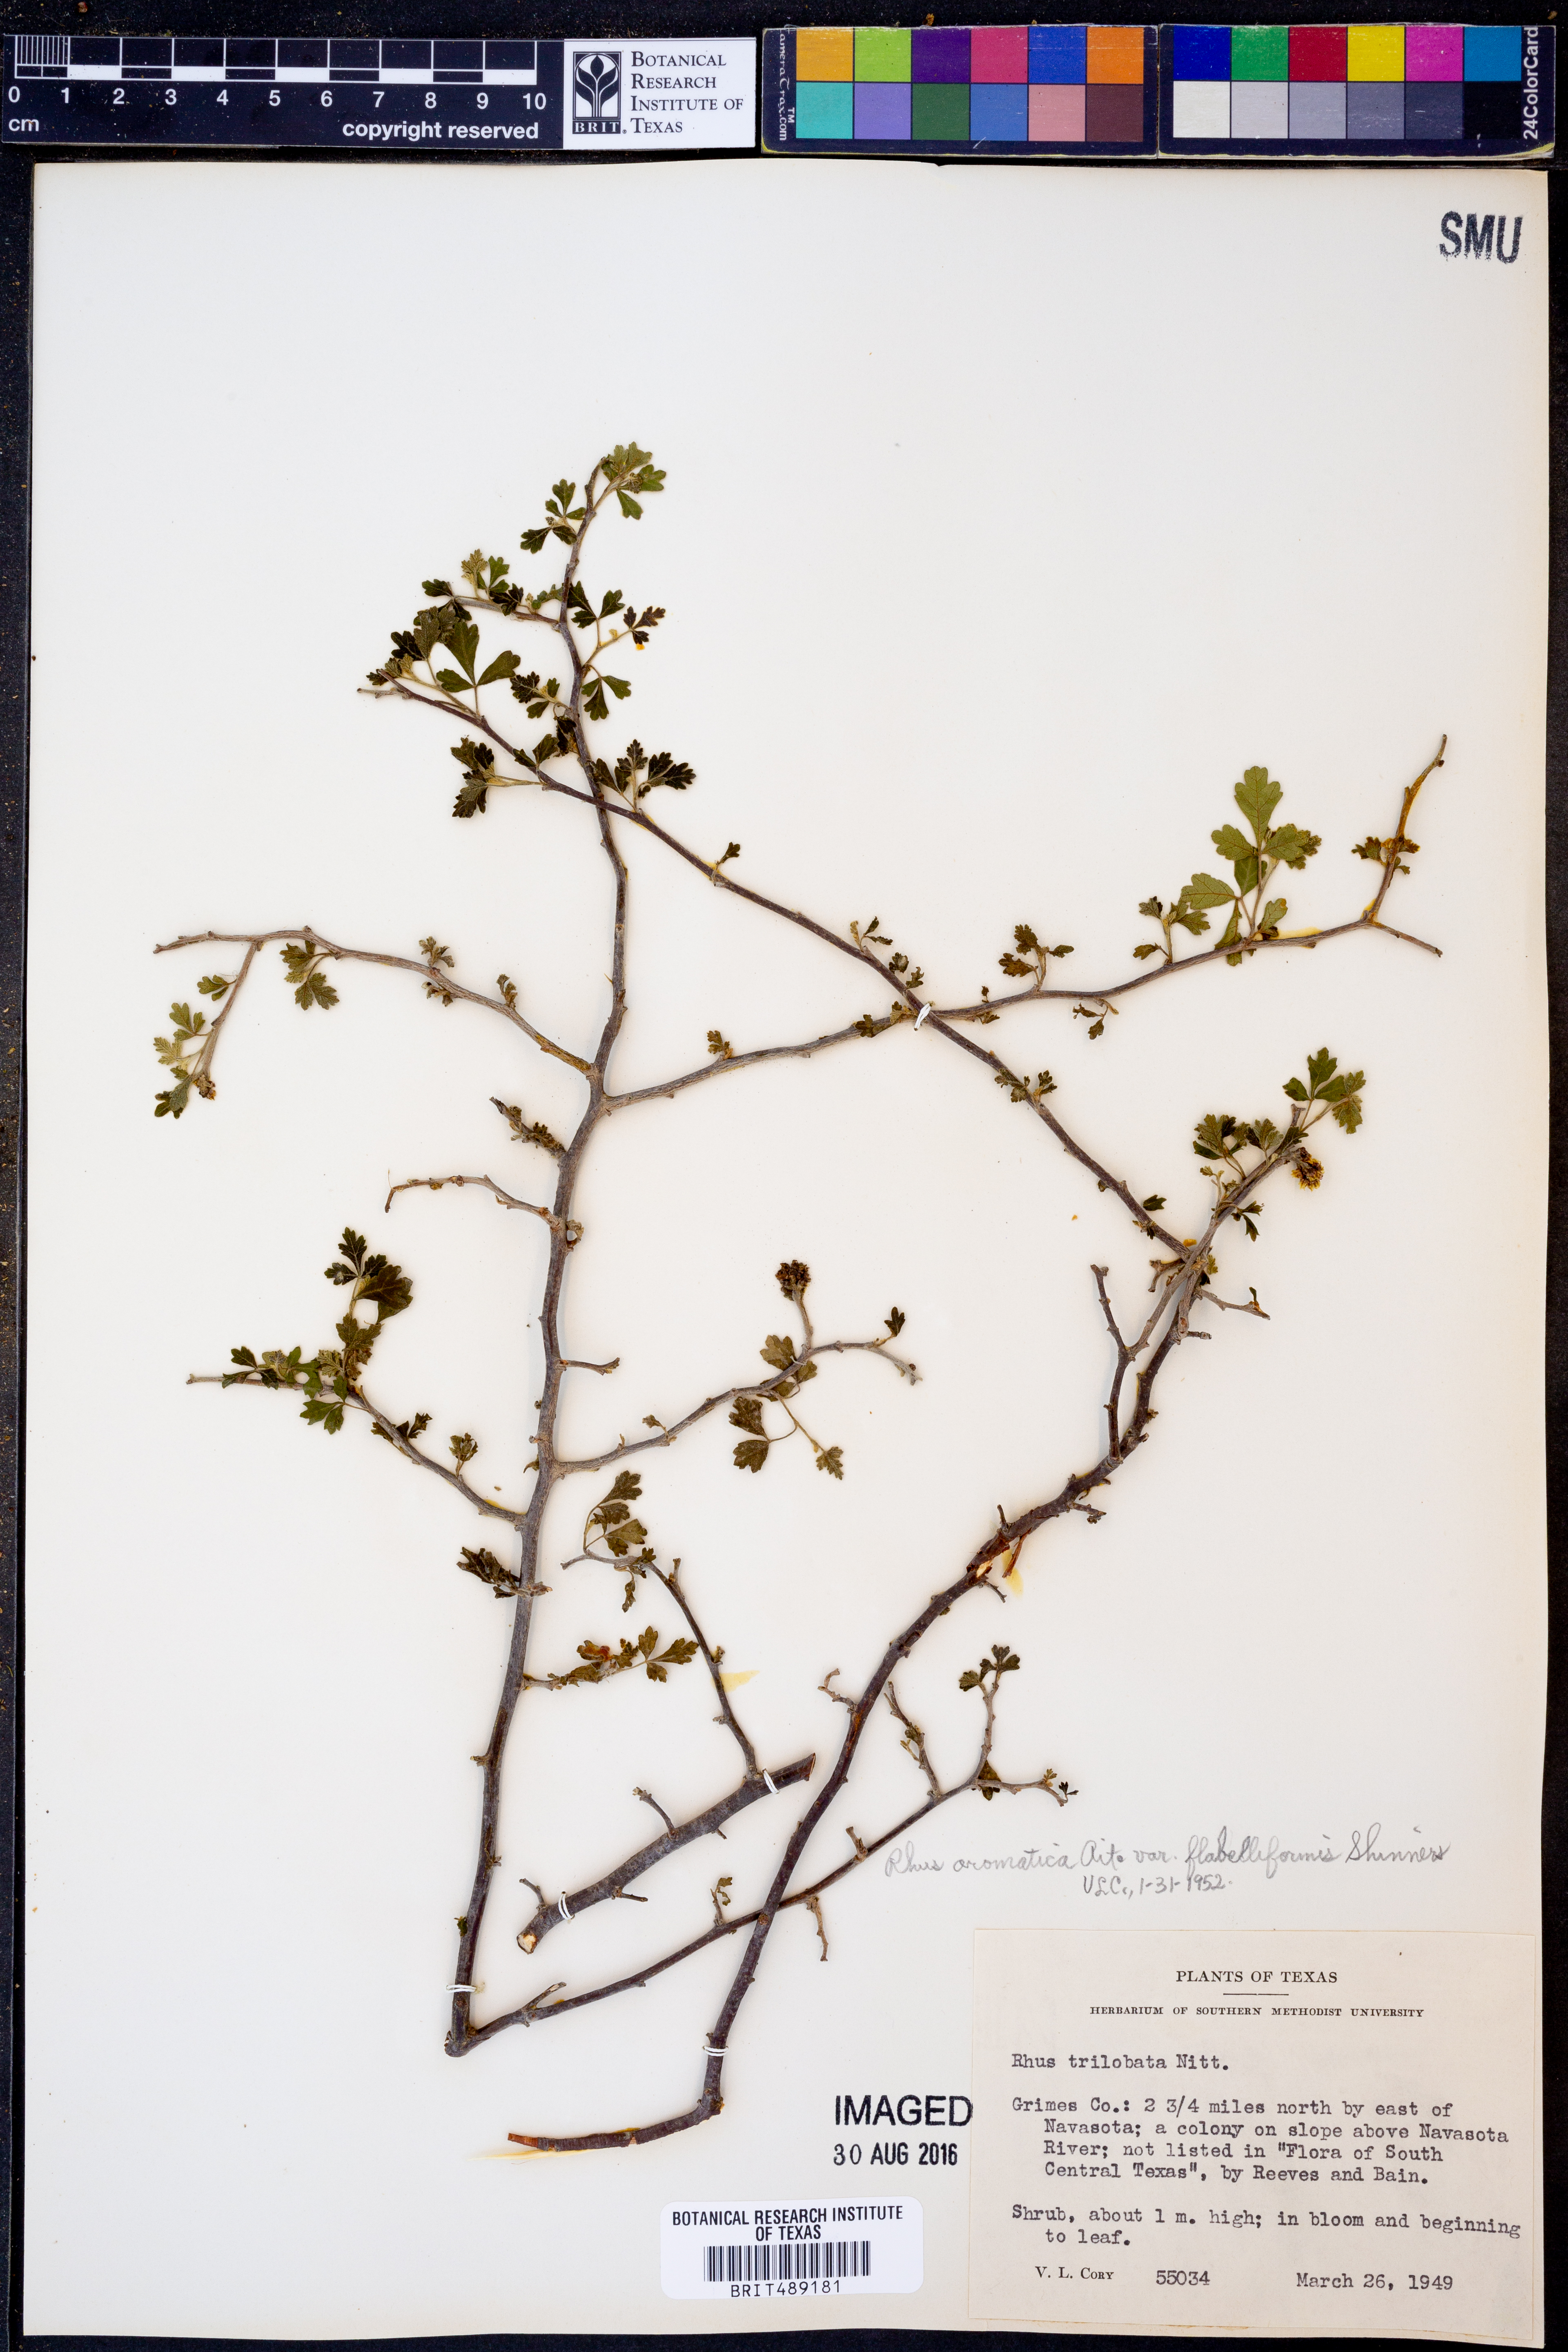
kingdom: Plantae
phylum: Tracheophyta
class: Magnoliopsida
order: Sapindales
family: Anacardiaceae
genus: Rhus
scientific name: Rhus trilobata
